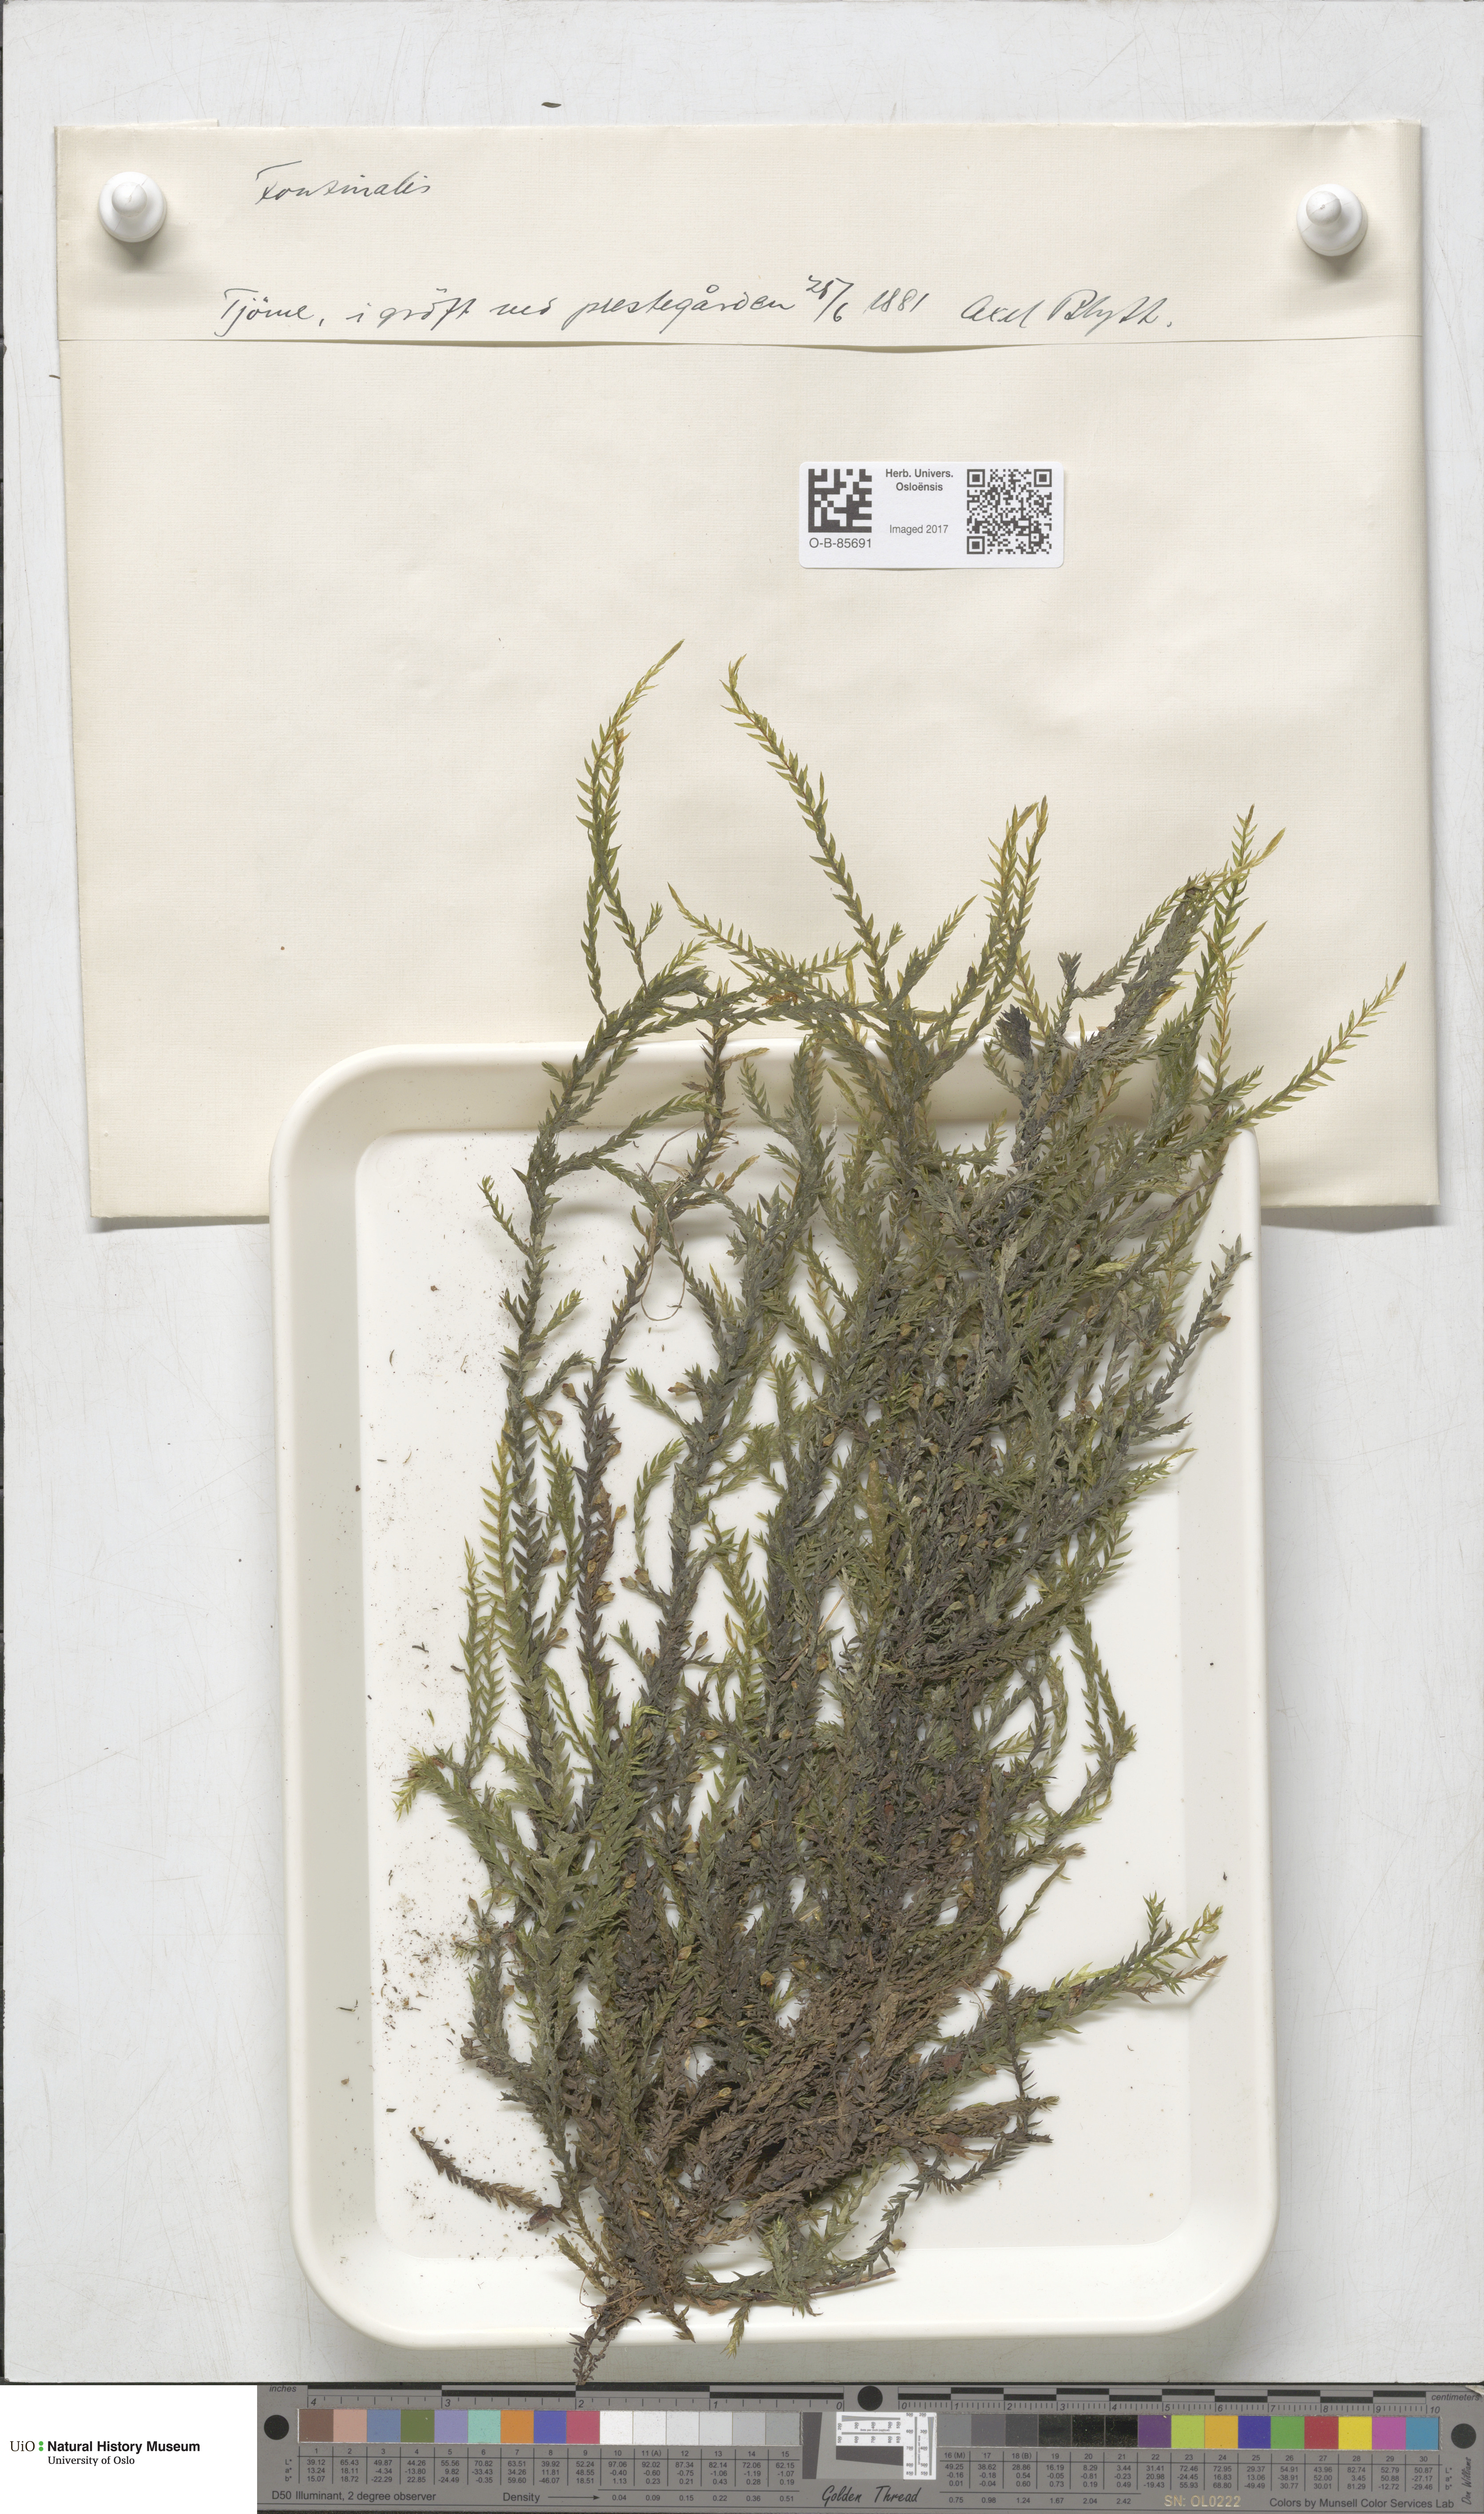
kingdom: Plantae
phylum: Bryophyta
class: Bryopsida
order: Hypnales
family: Fontinalaceae
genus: Fontinalis
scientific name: Fontinalis
